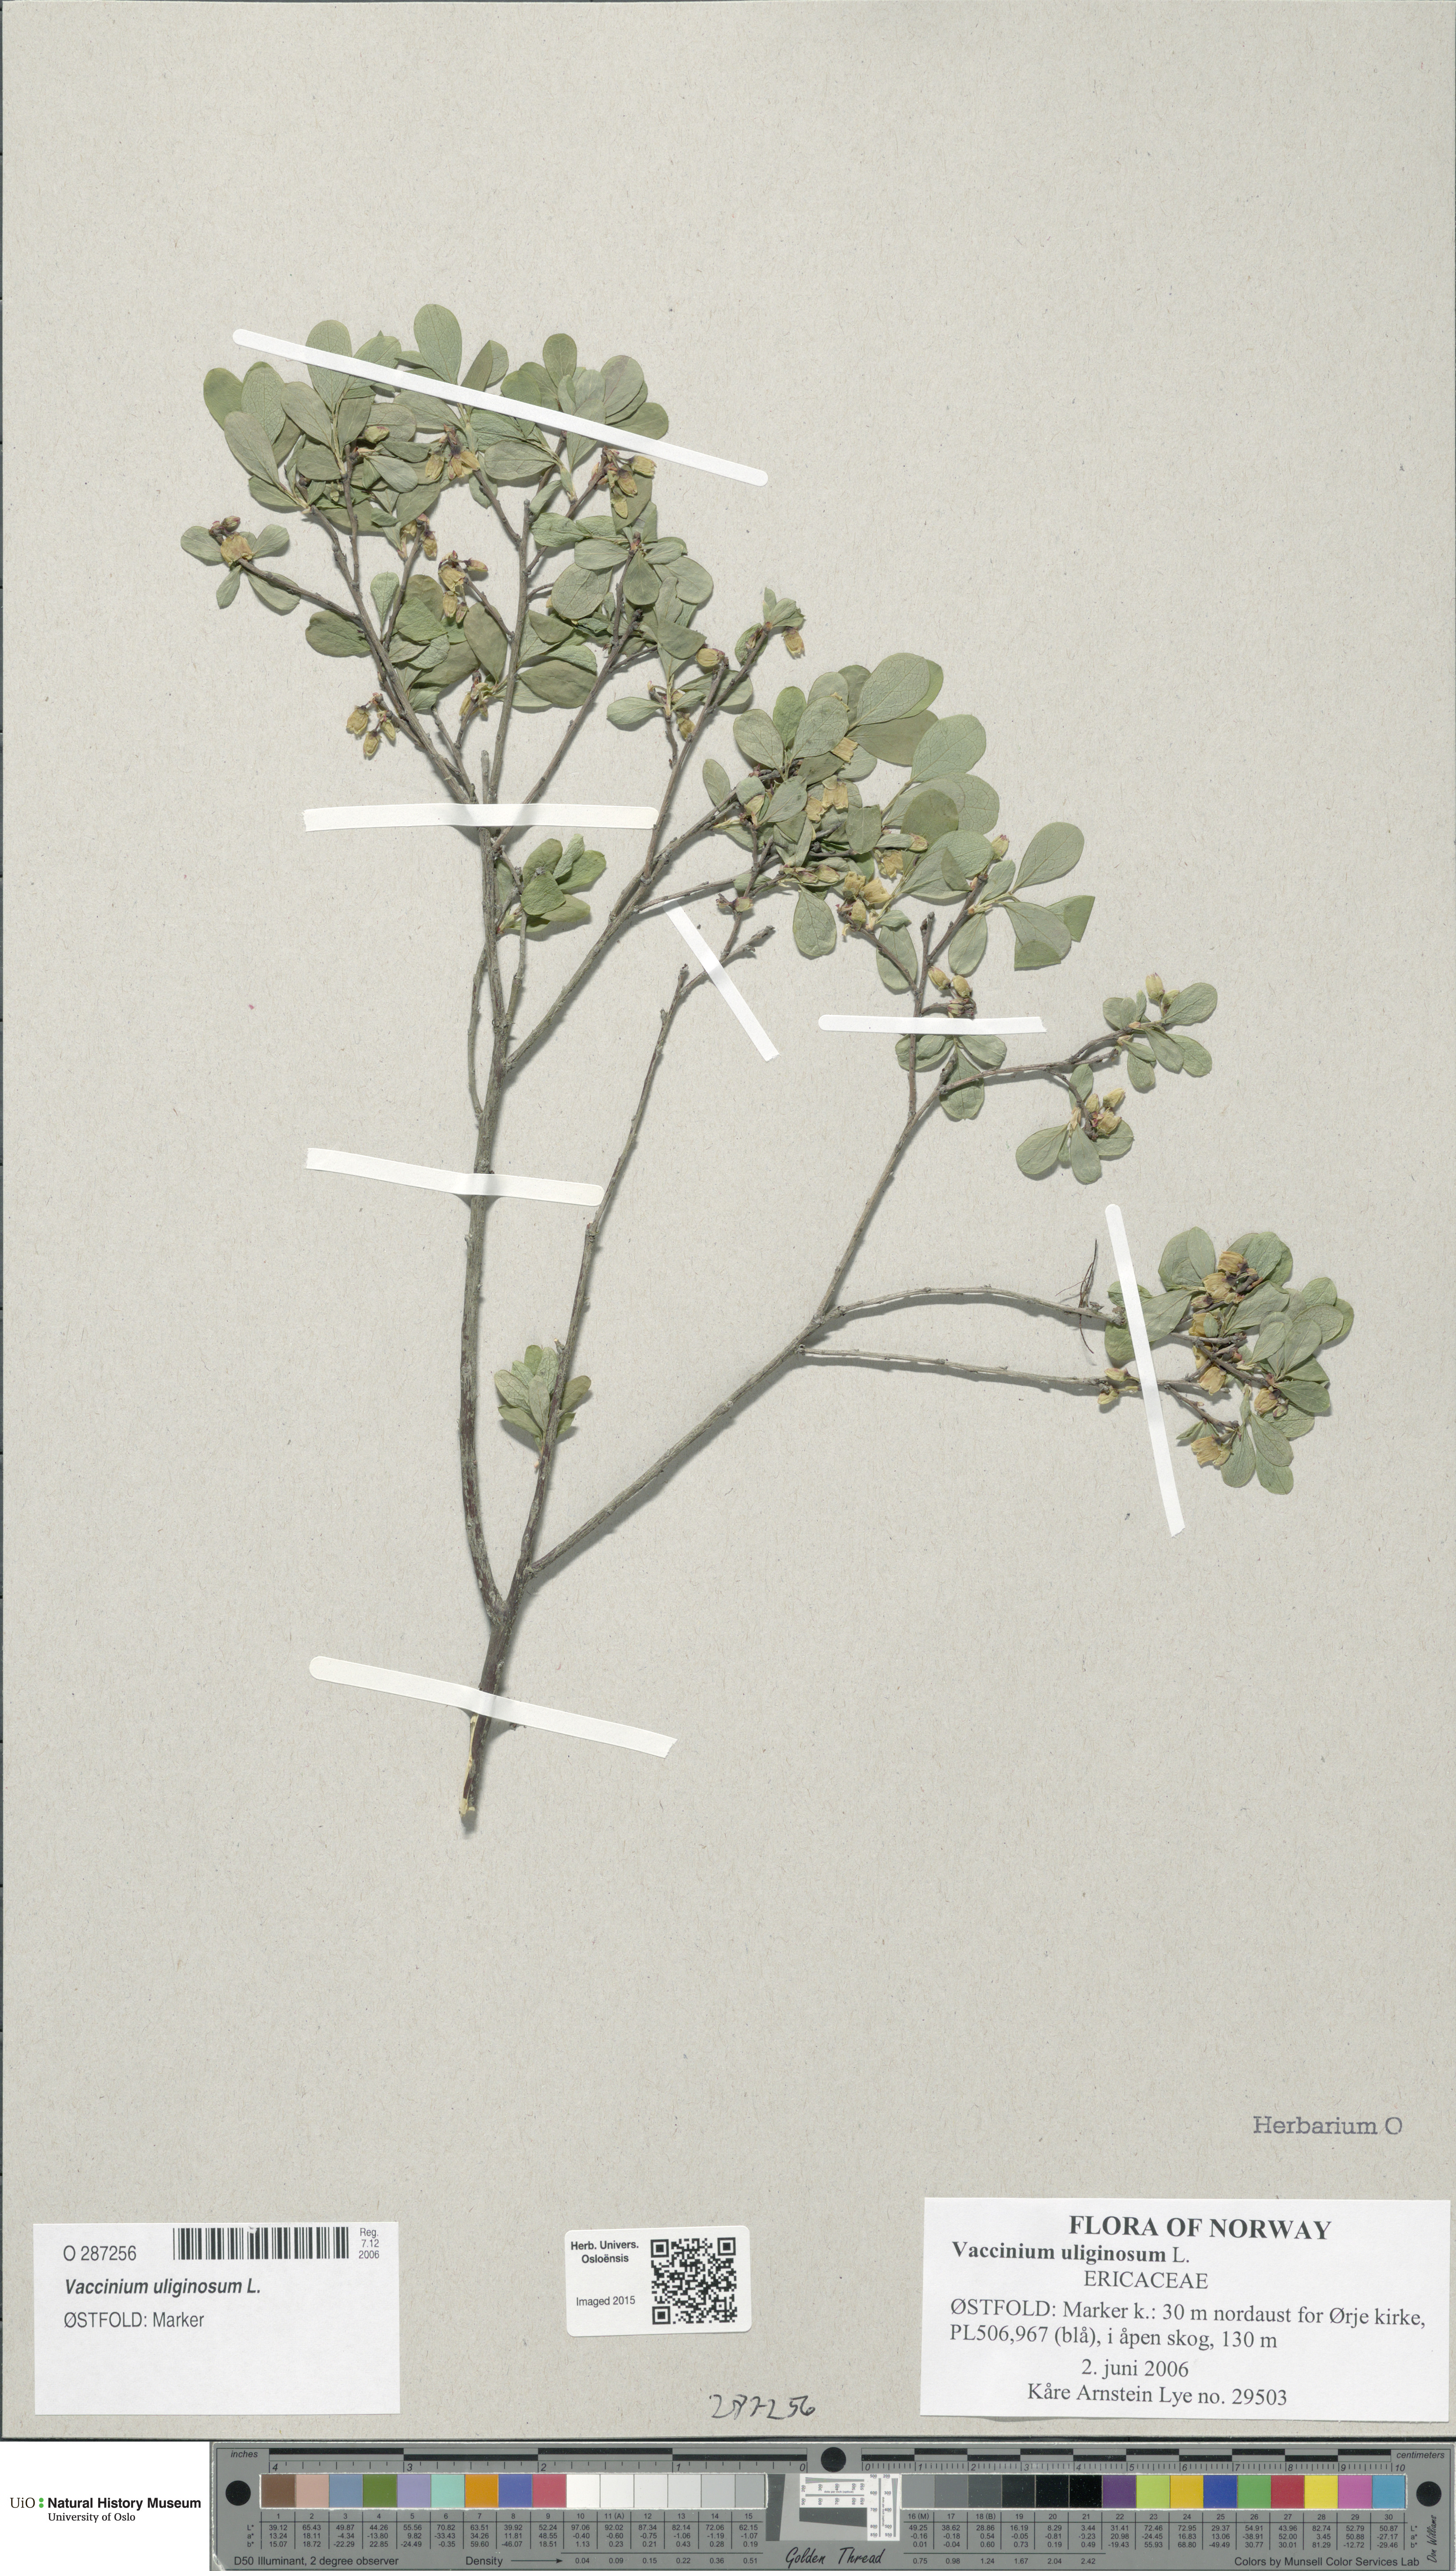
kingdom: Plantae
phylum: Tracheophyta
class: Magnoliopsida
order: Ericales
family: Ericaceae
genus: Vaccinium
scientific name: Vaccinium uliginosum
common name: Bog bilberry
